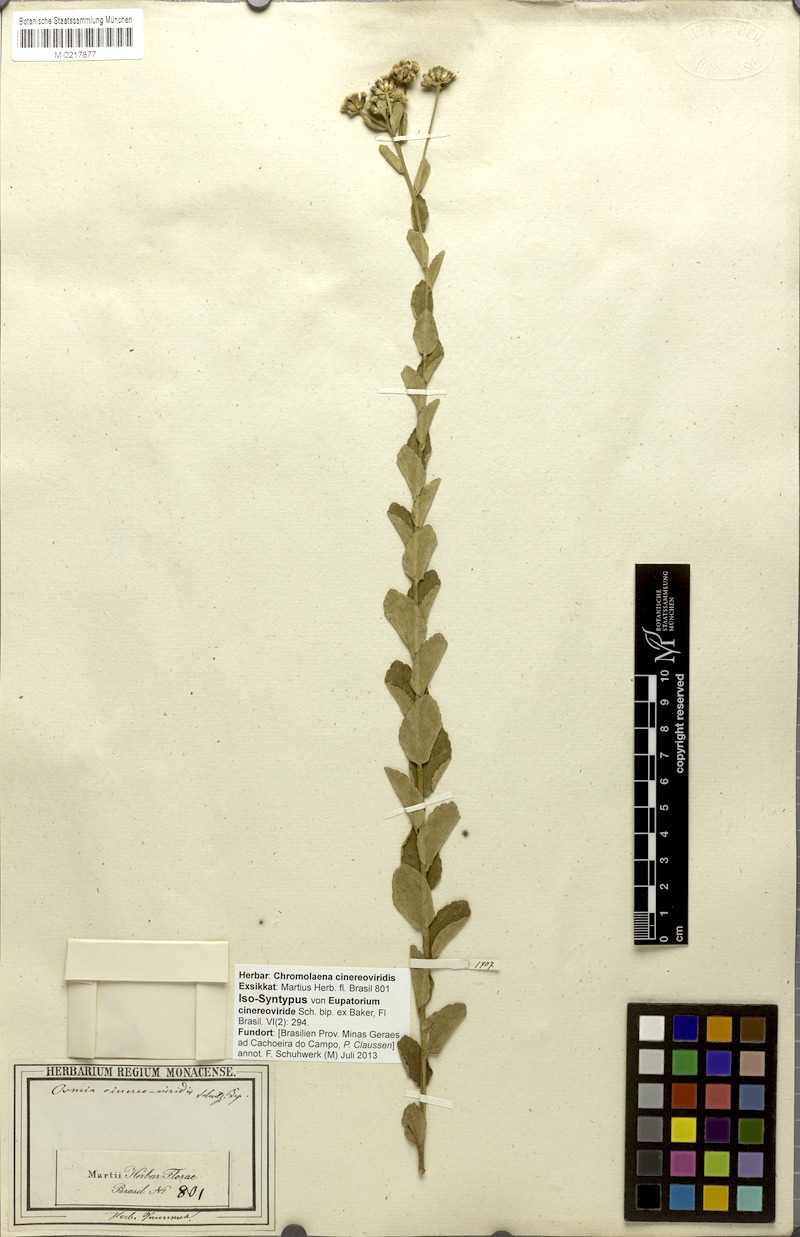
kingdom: Plantae
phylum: Tracheophyta
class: Magnoliopsida
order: Asterales
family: Asteraceae
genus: Chromolaena
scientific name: Chromolaena cinereoviridis
